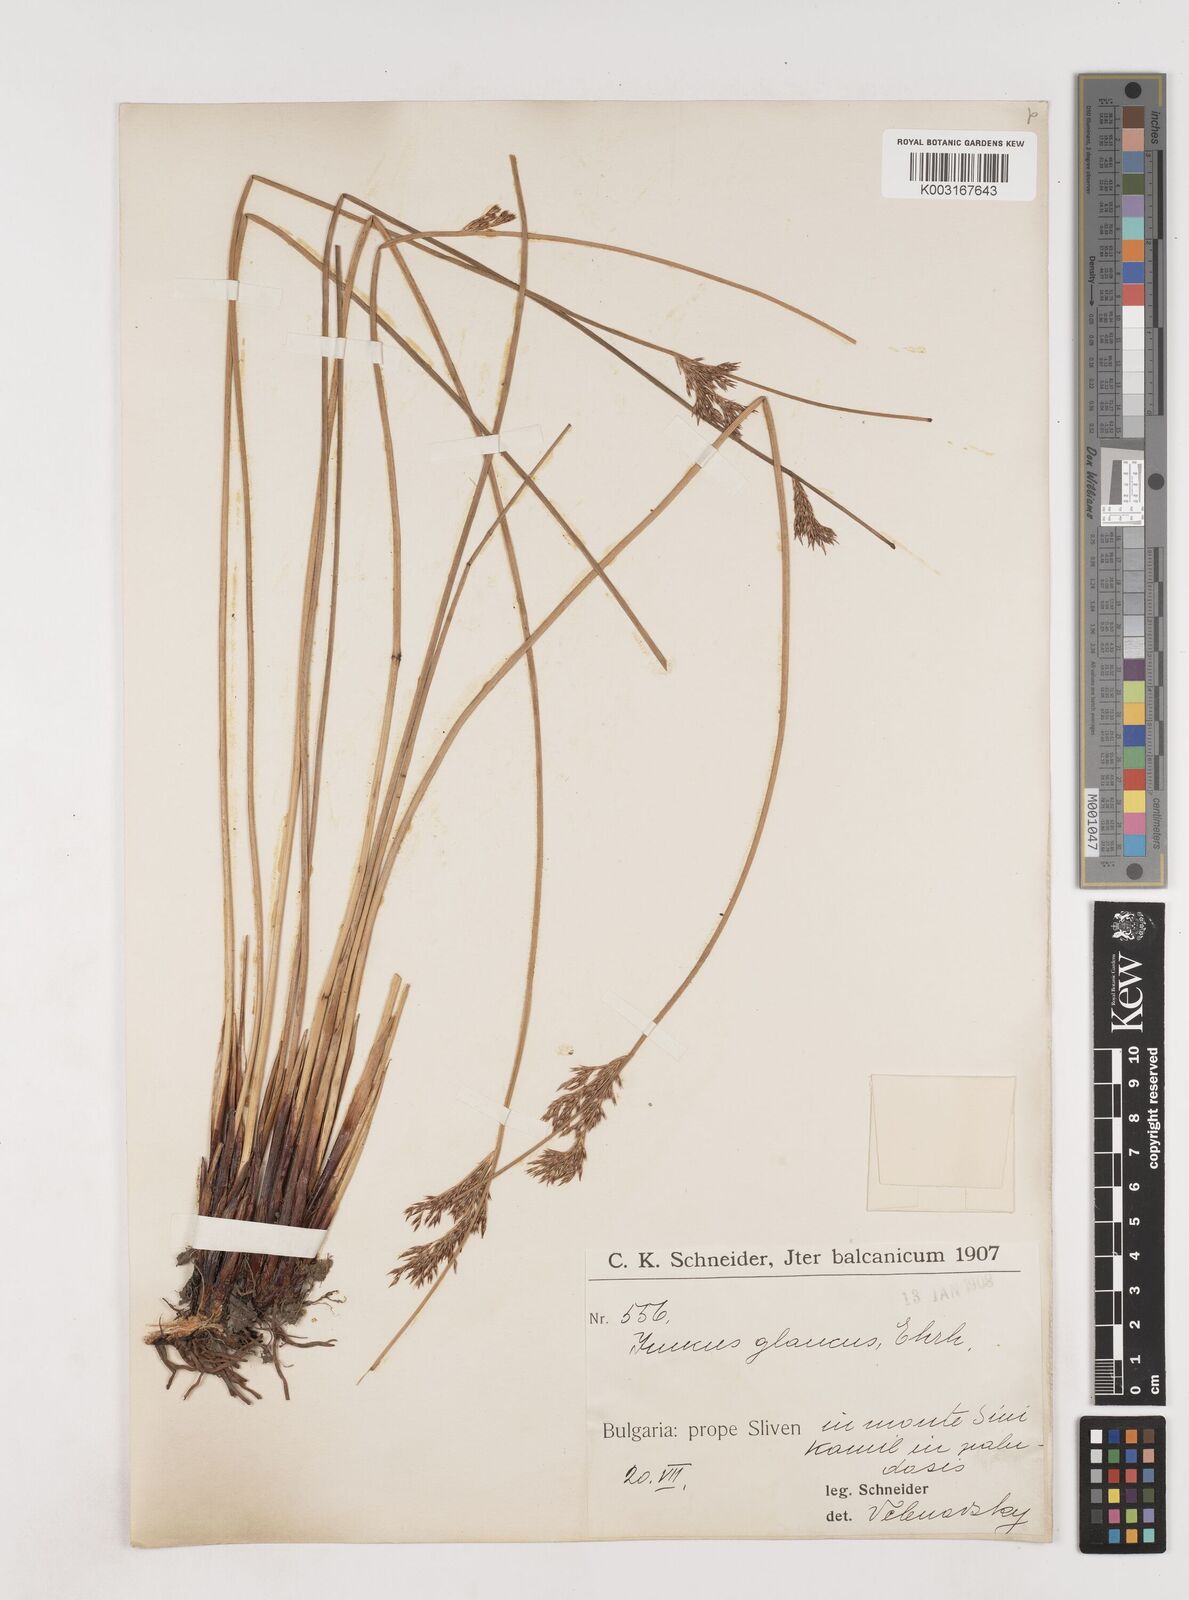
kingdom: Plantae
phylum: Tracheophyta
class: Liliopsida
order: Poales
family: Juncaceae
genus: Juncus
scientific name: Juncus inflexus
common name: Hard rush
